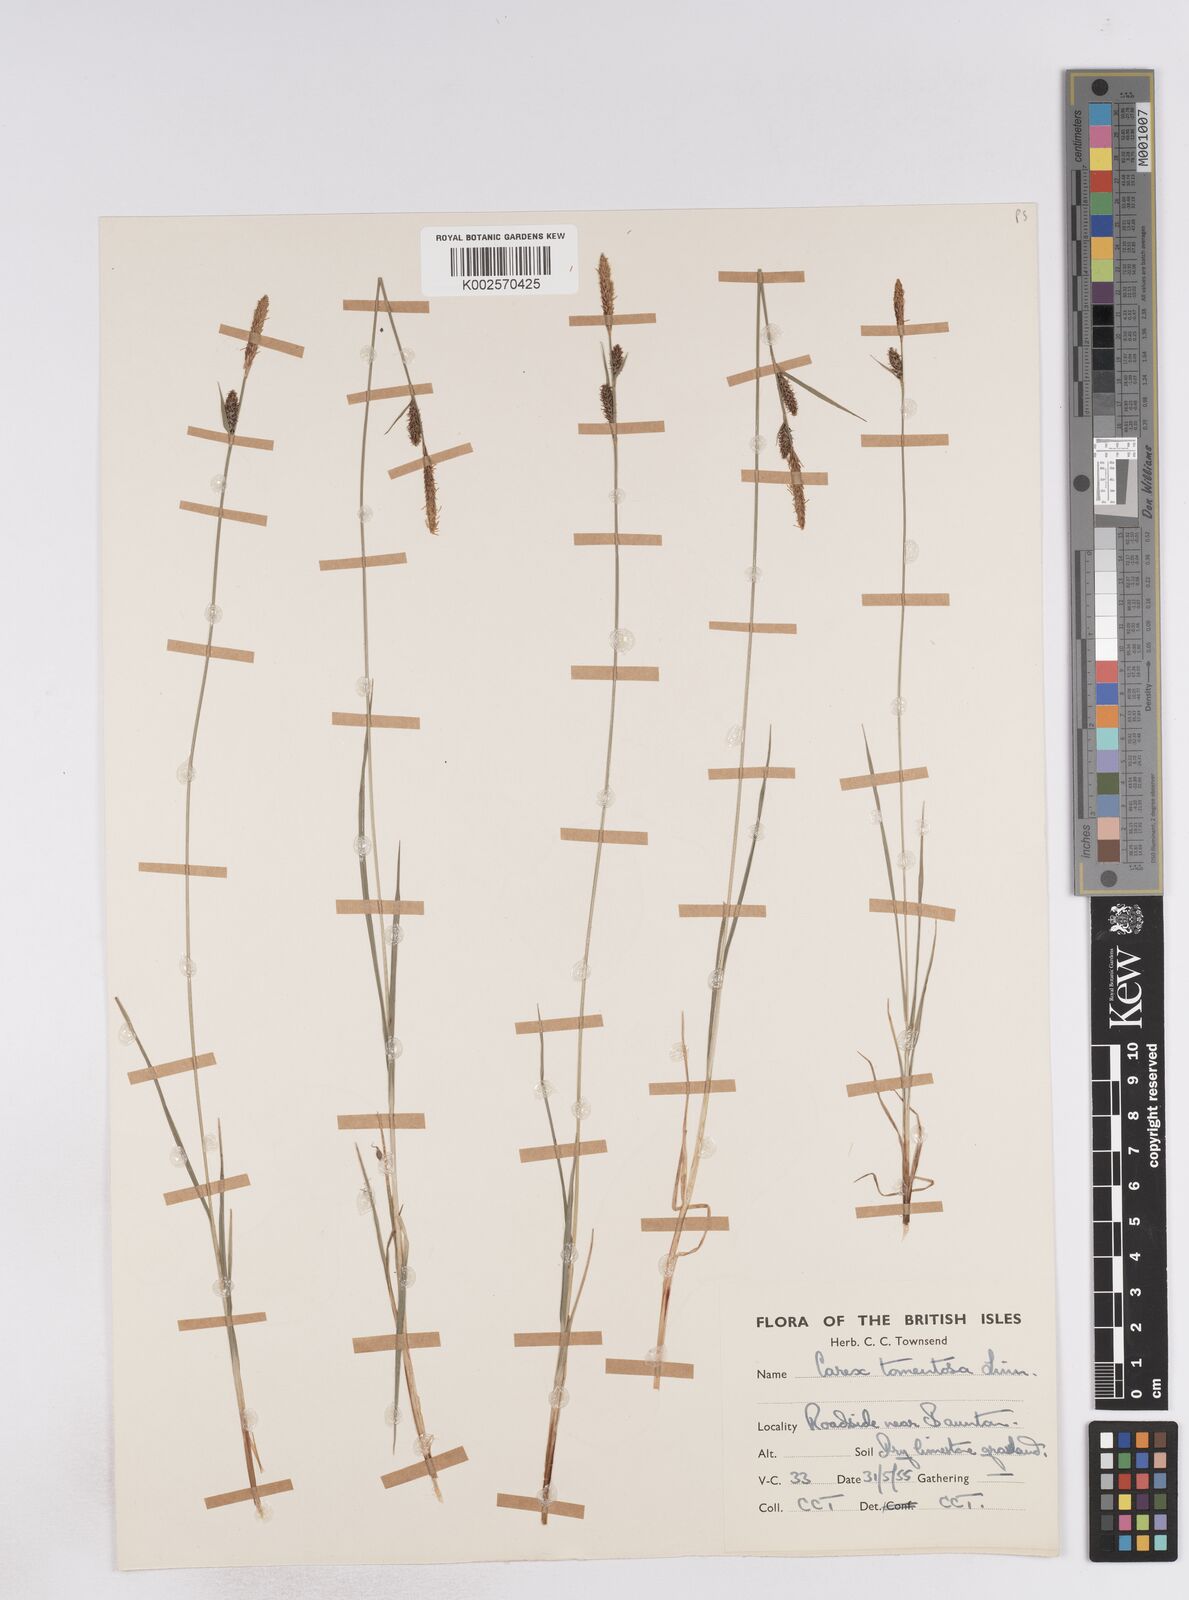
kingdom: Plantae
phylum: Tracheophyta
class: Liliopsida
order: Poales
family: Cyperaceae
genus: Carex
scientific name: Carex montana
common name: Soft-leaved sedge
